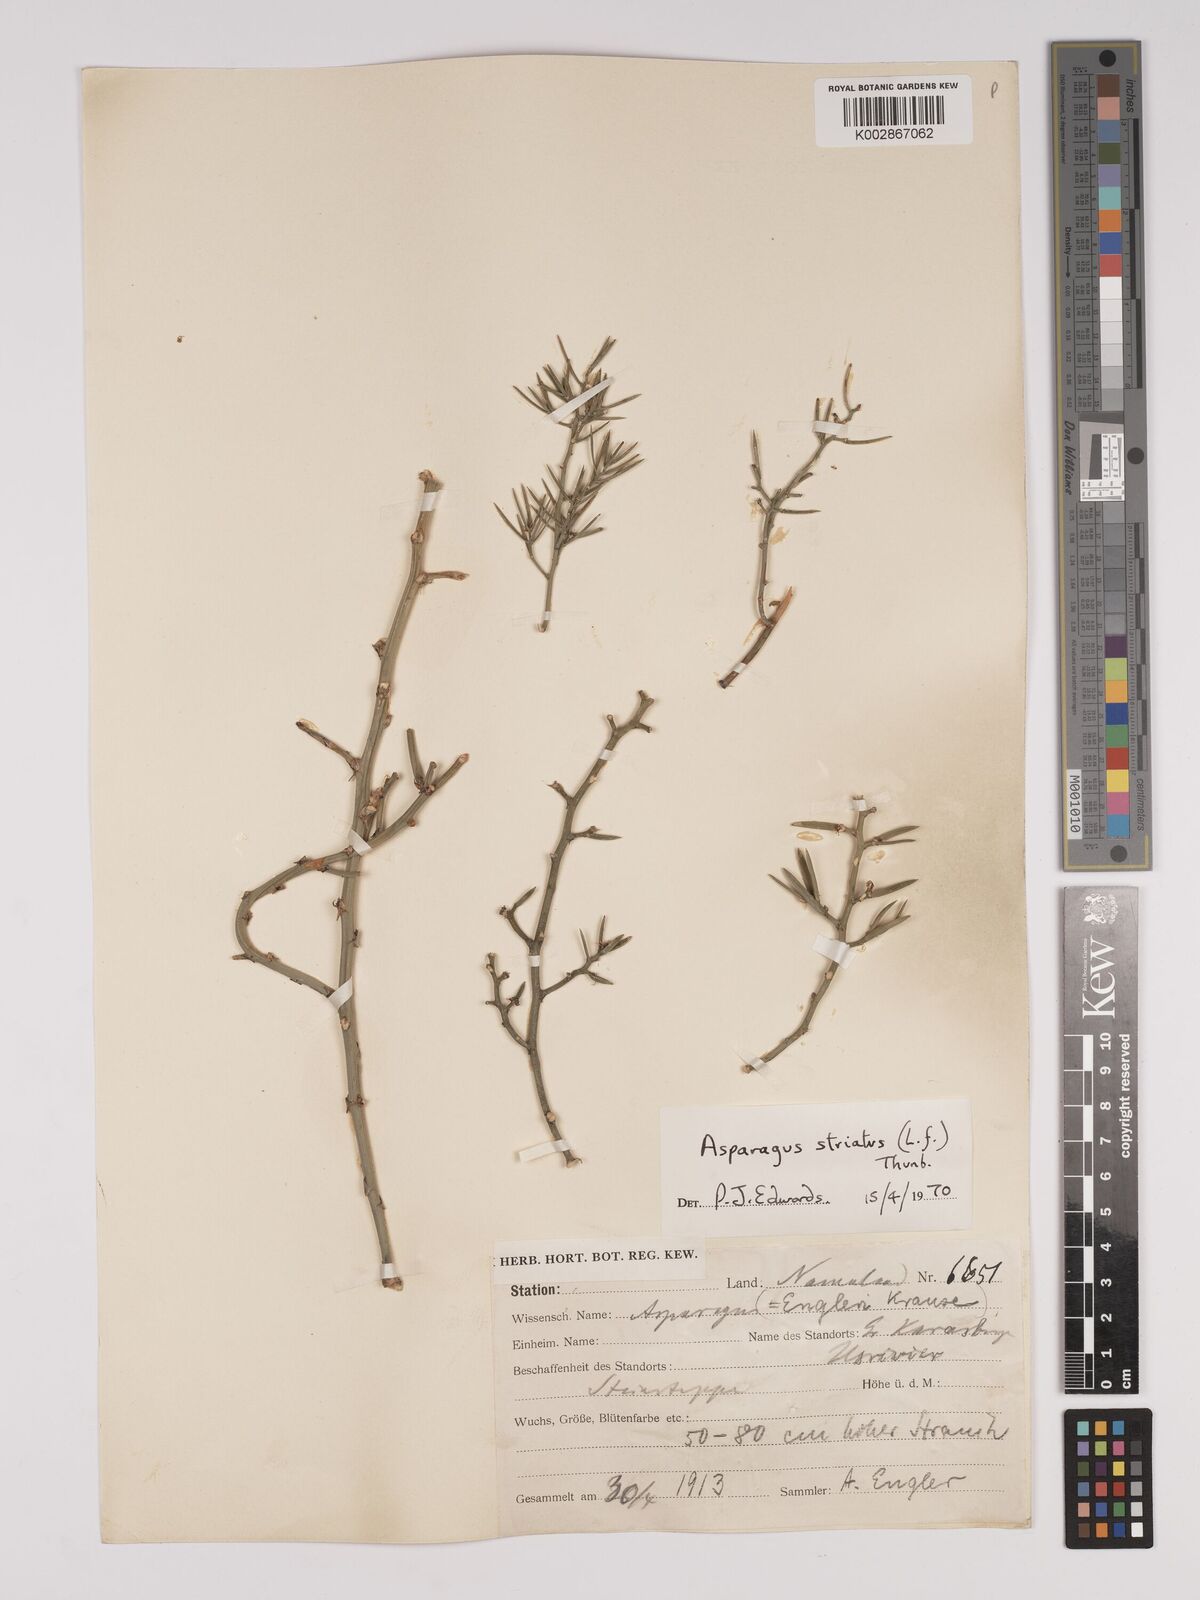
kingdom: Plantae
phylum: Tracheophyta
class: Liliopsida
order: Asparagales
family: Asparagaceae
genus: Asparagus
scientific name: Asparagus striatus
